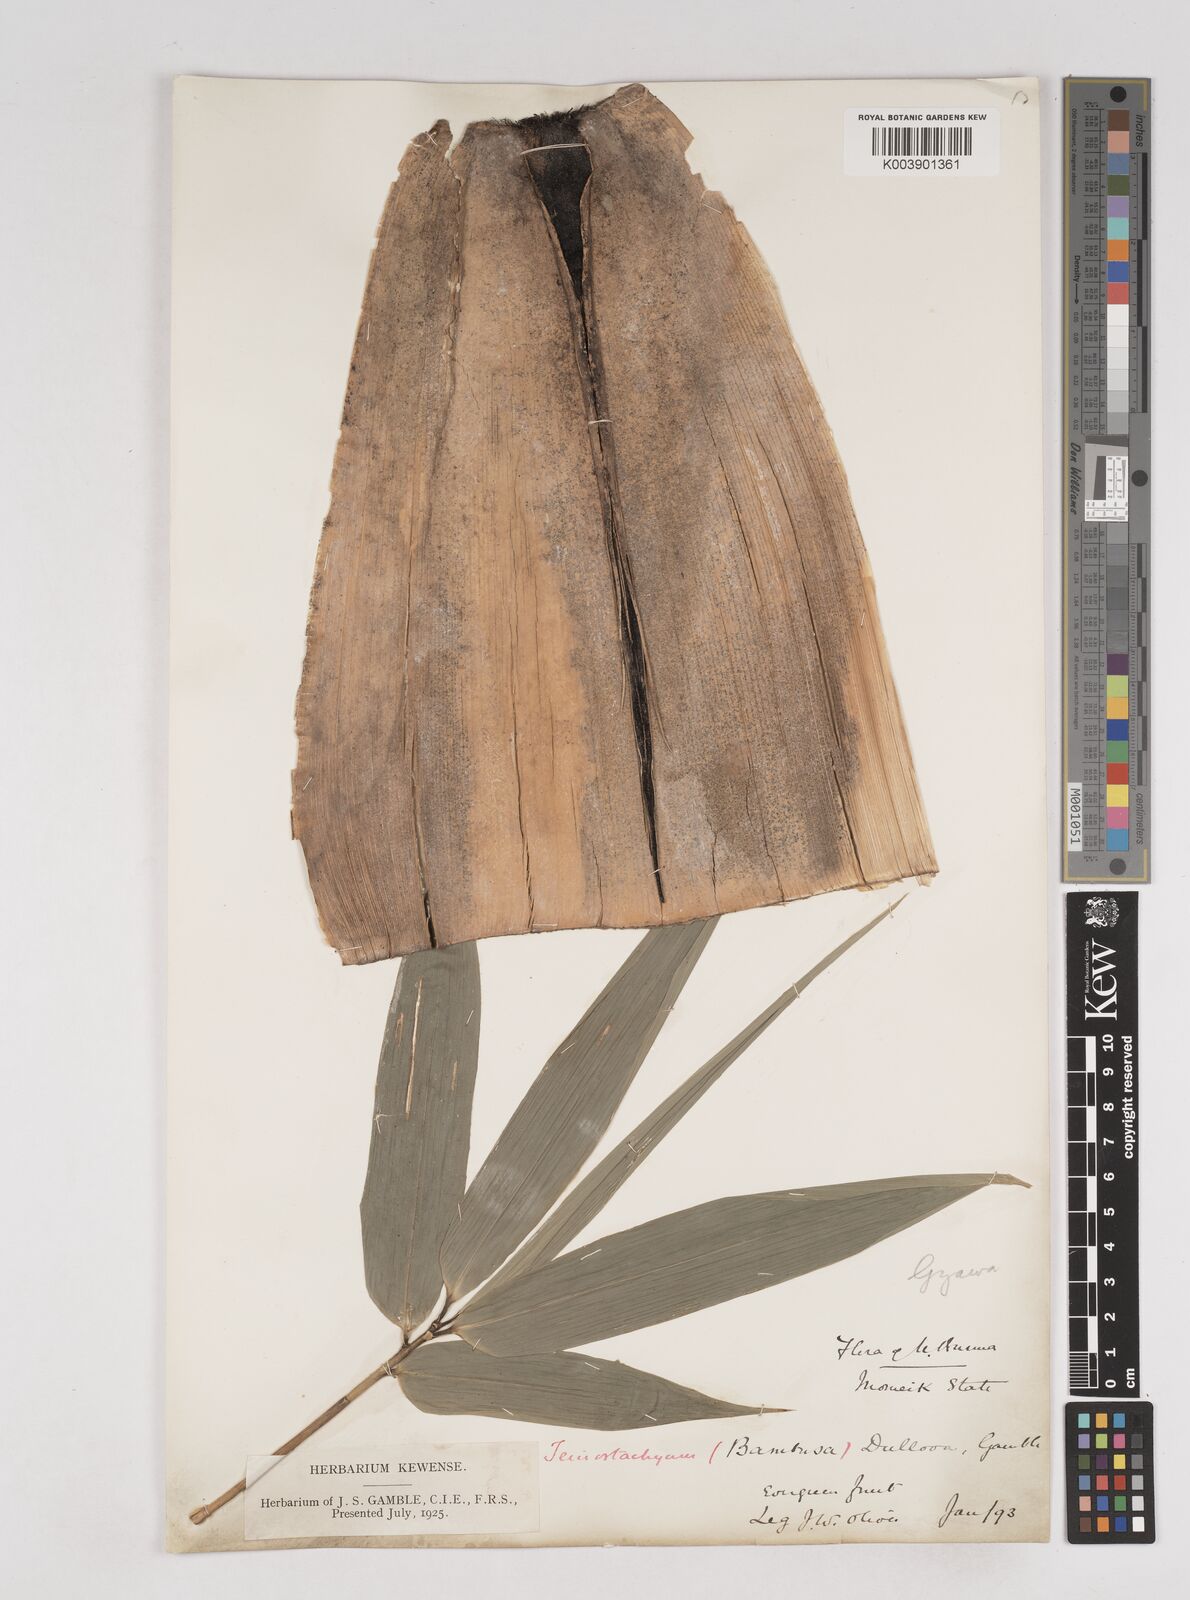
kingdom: Plantae
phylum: Tracheophyta
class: Liliopsida
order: Poales
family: Poaceae
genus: Schizostachyum
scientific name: Schizostachyum dullooa
